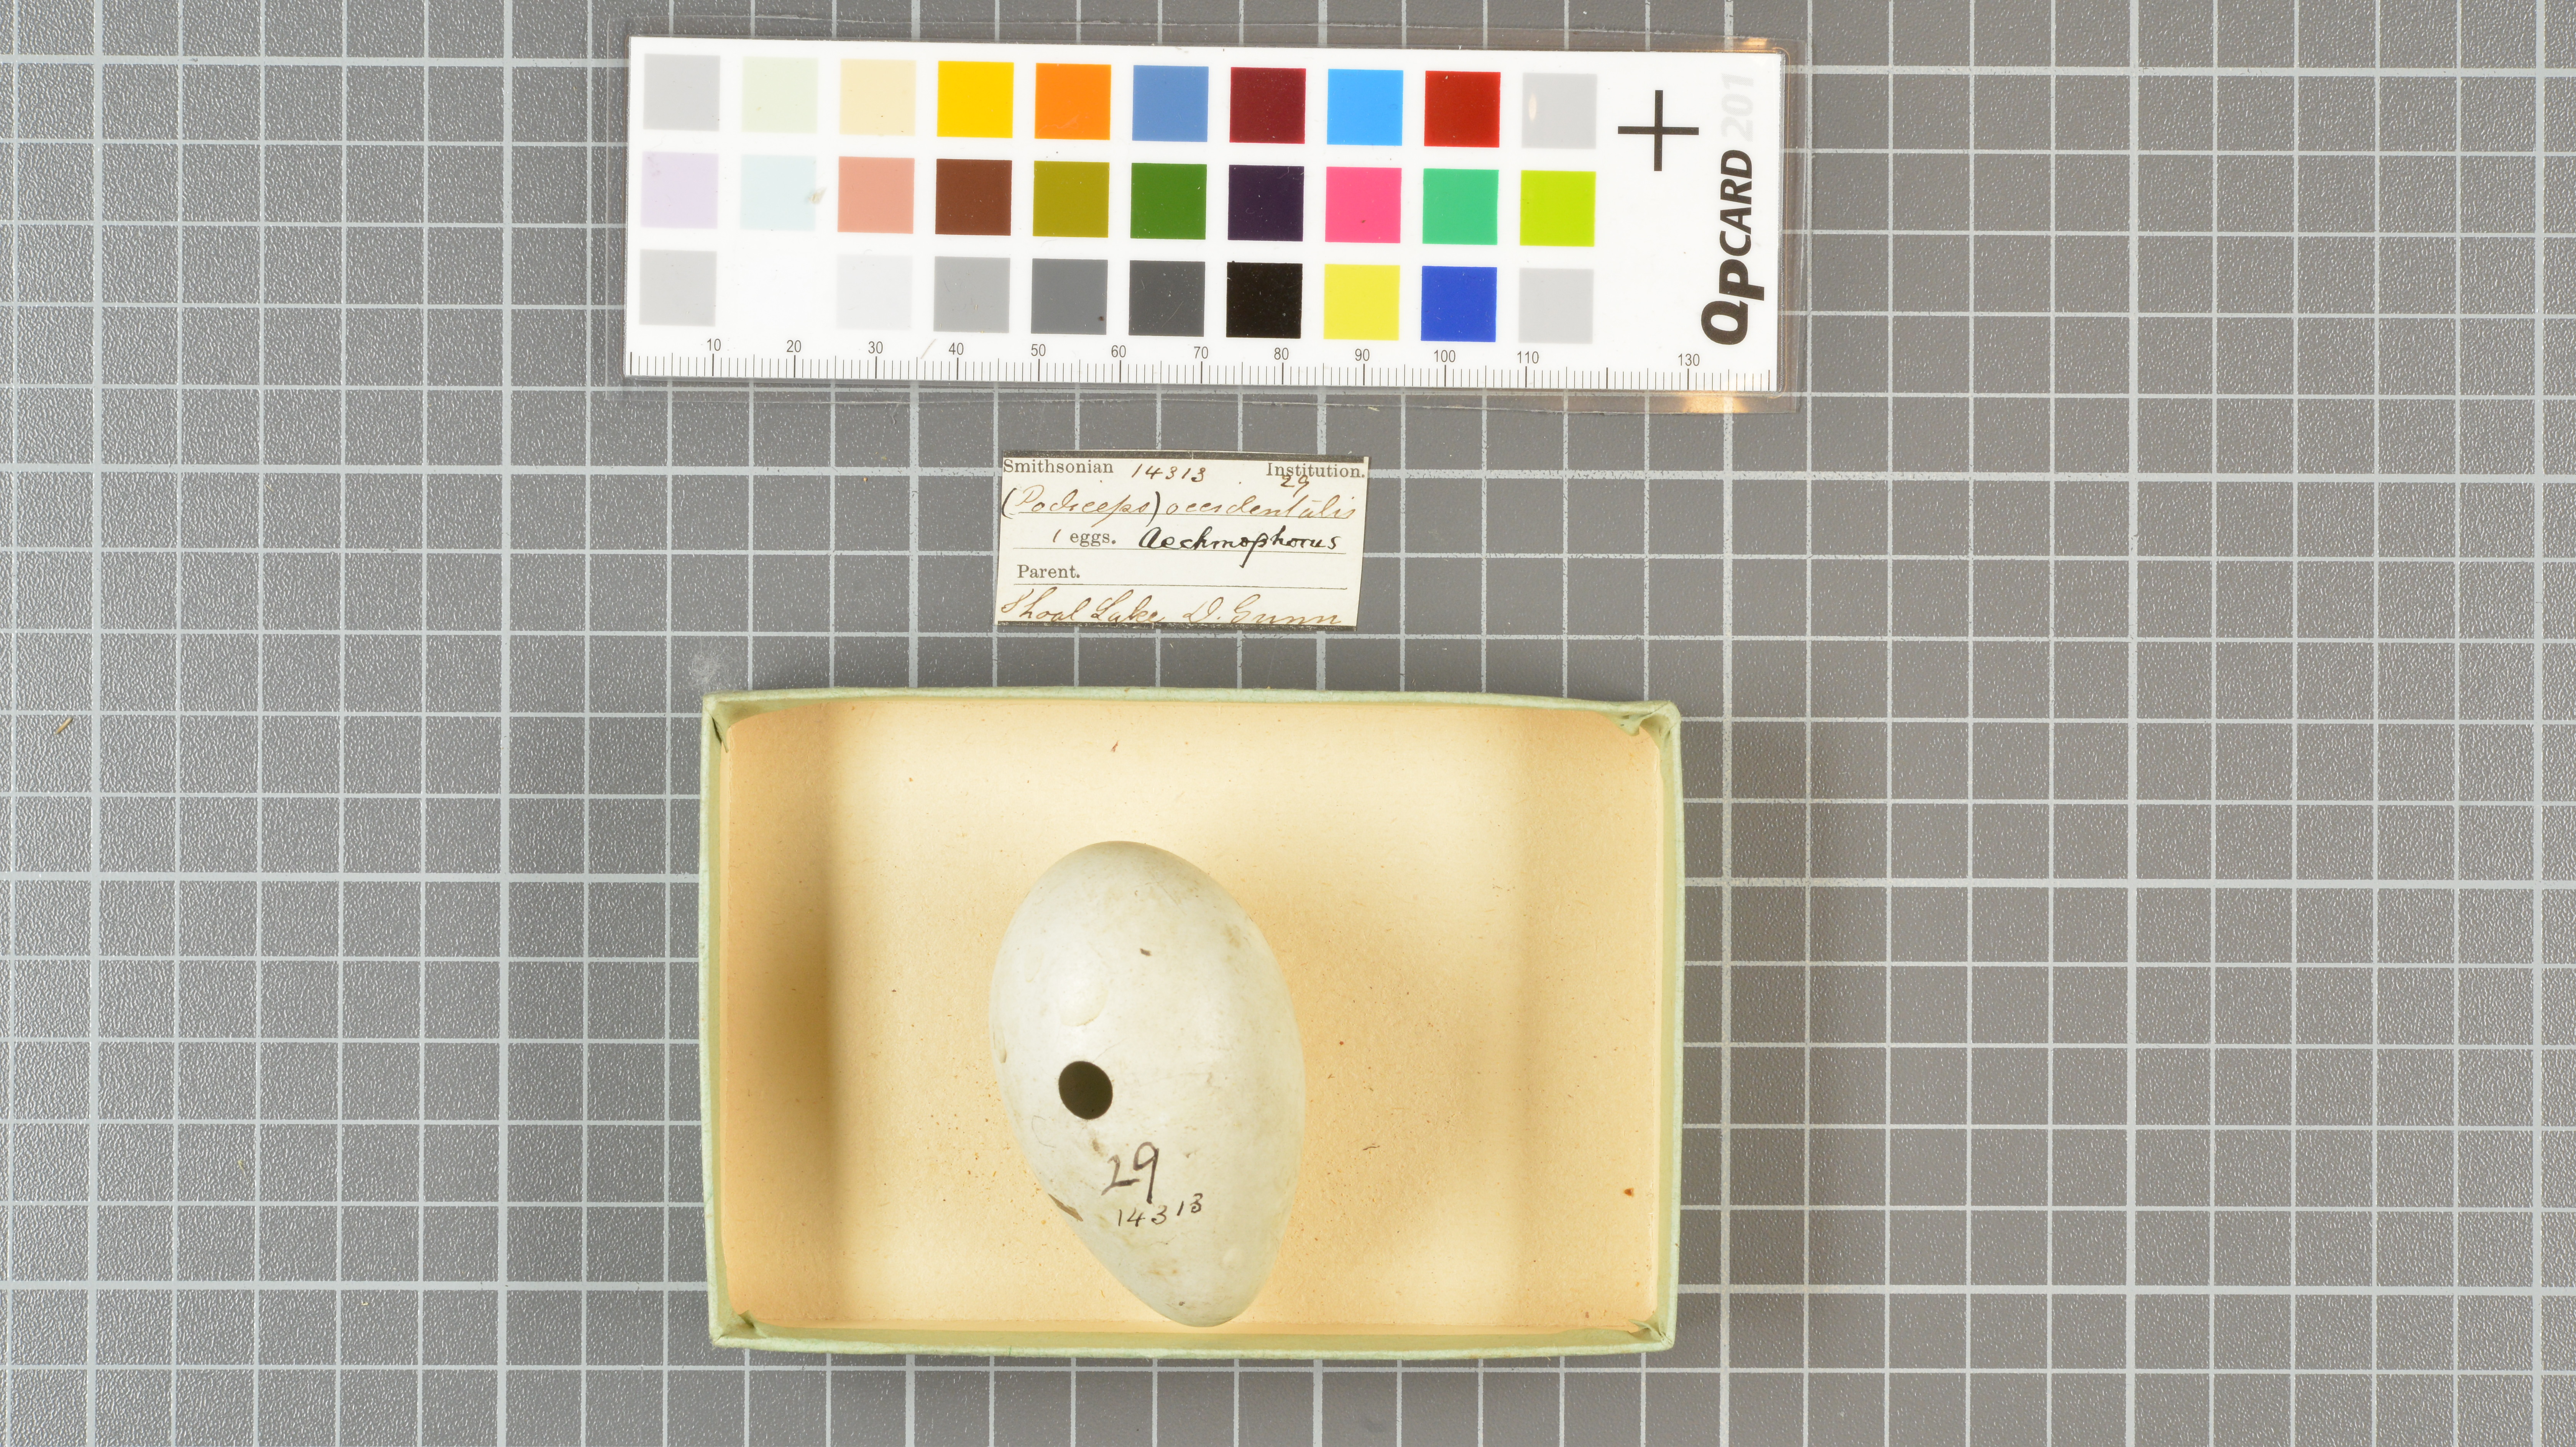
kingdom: Animalia
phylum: Chordata
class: Aves
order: Podicipediformes
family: Podicipedidae
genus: Aechmophorus
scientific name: Aechmophorus occidentalis
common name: Western grebe
